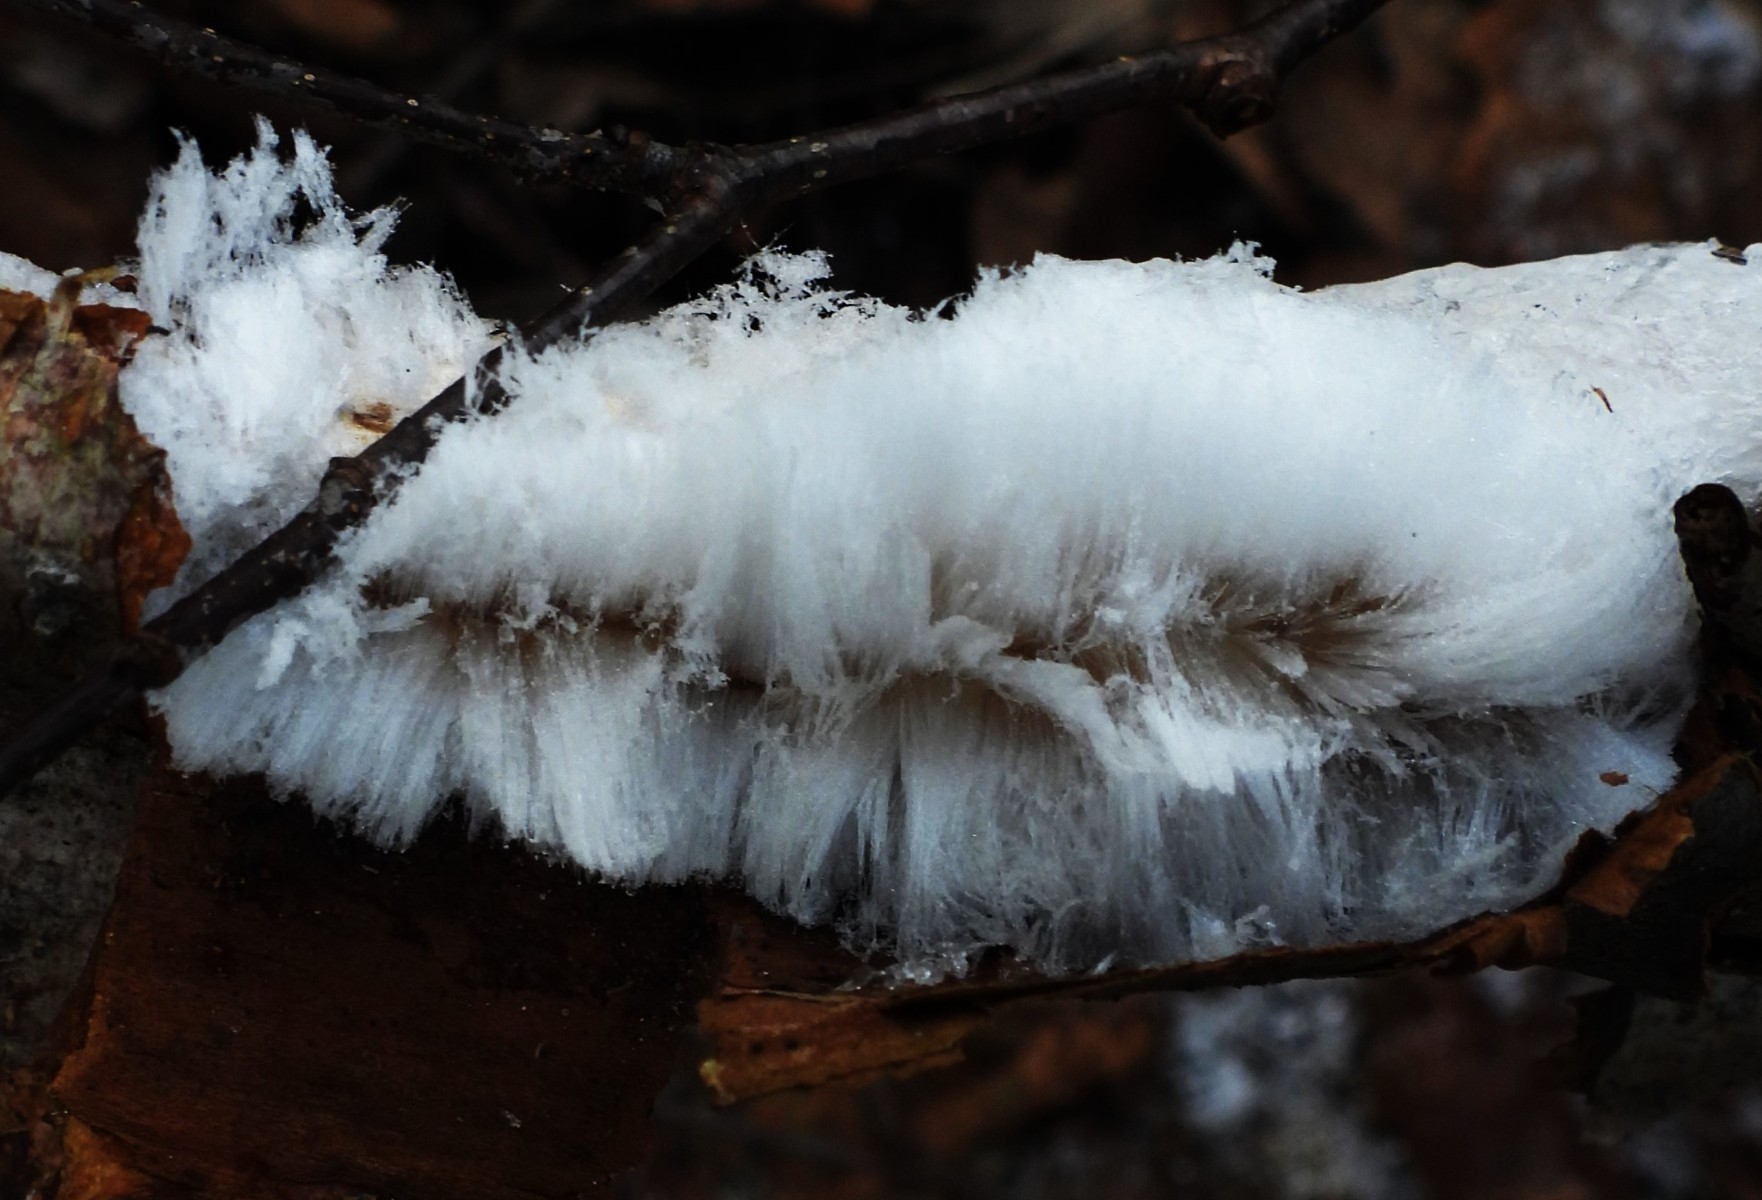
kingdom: Fungi
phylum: Basidiomycota
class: Tremellomycetes
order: Tremellales
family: Exidiaceae
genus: Exidiopsis
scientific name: Exidiopsis effusa
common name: smuk bævrehinde
